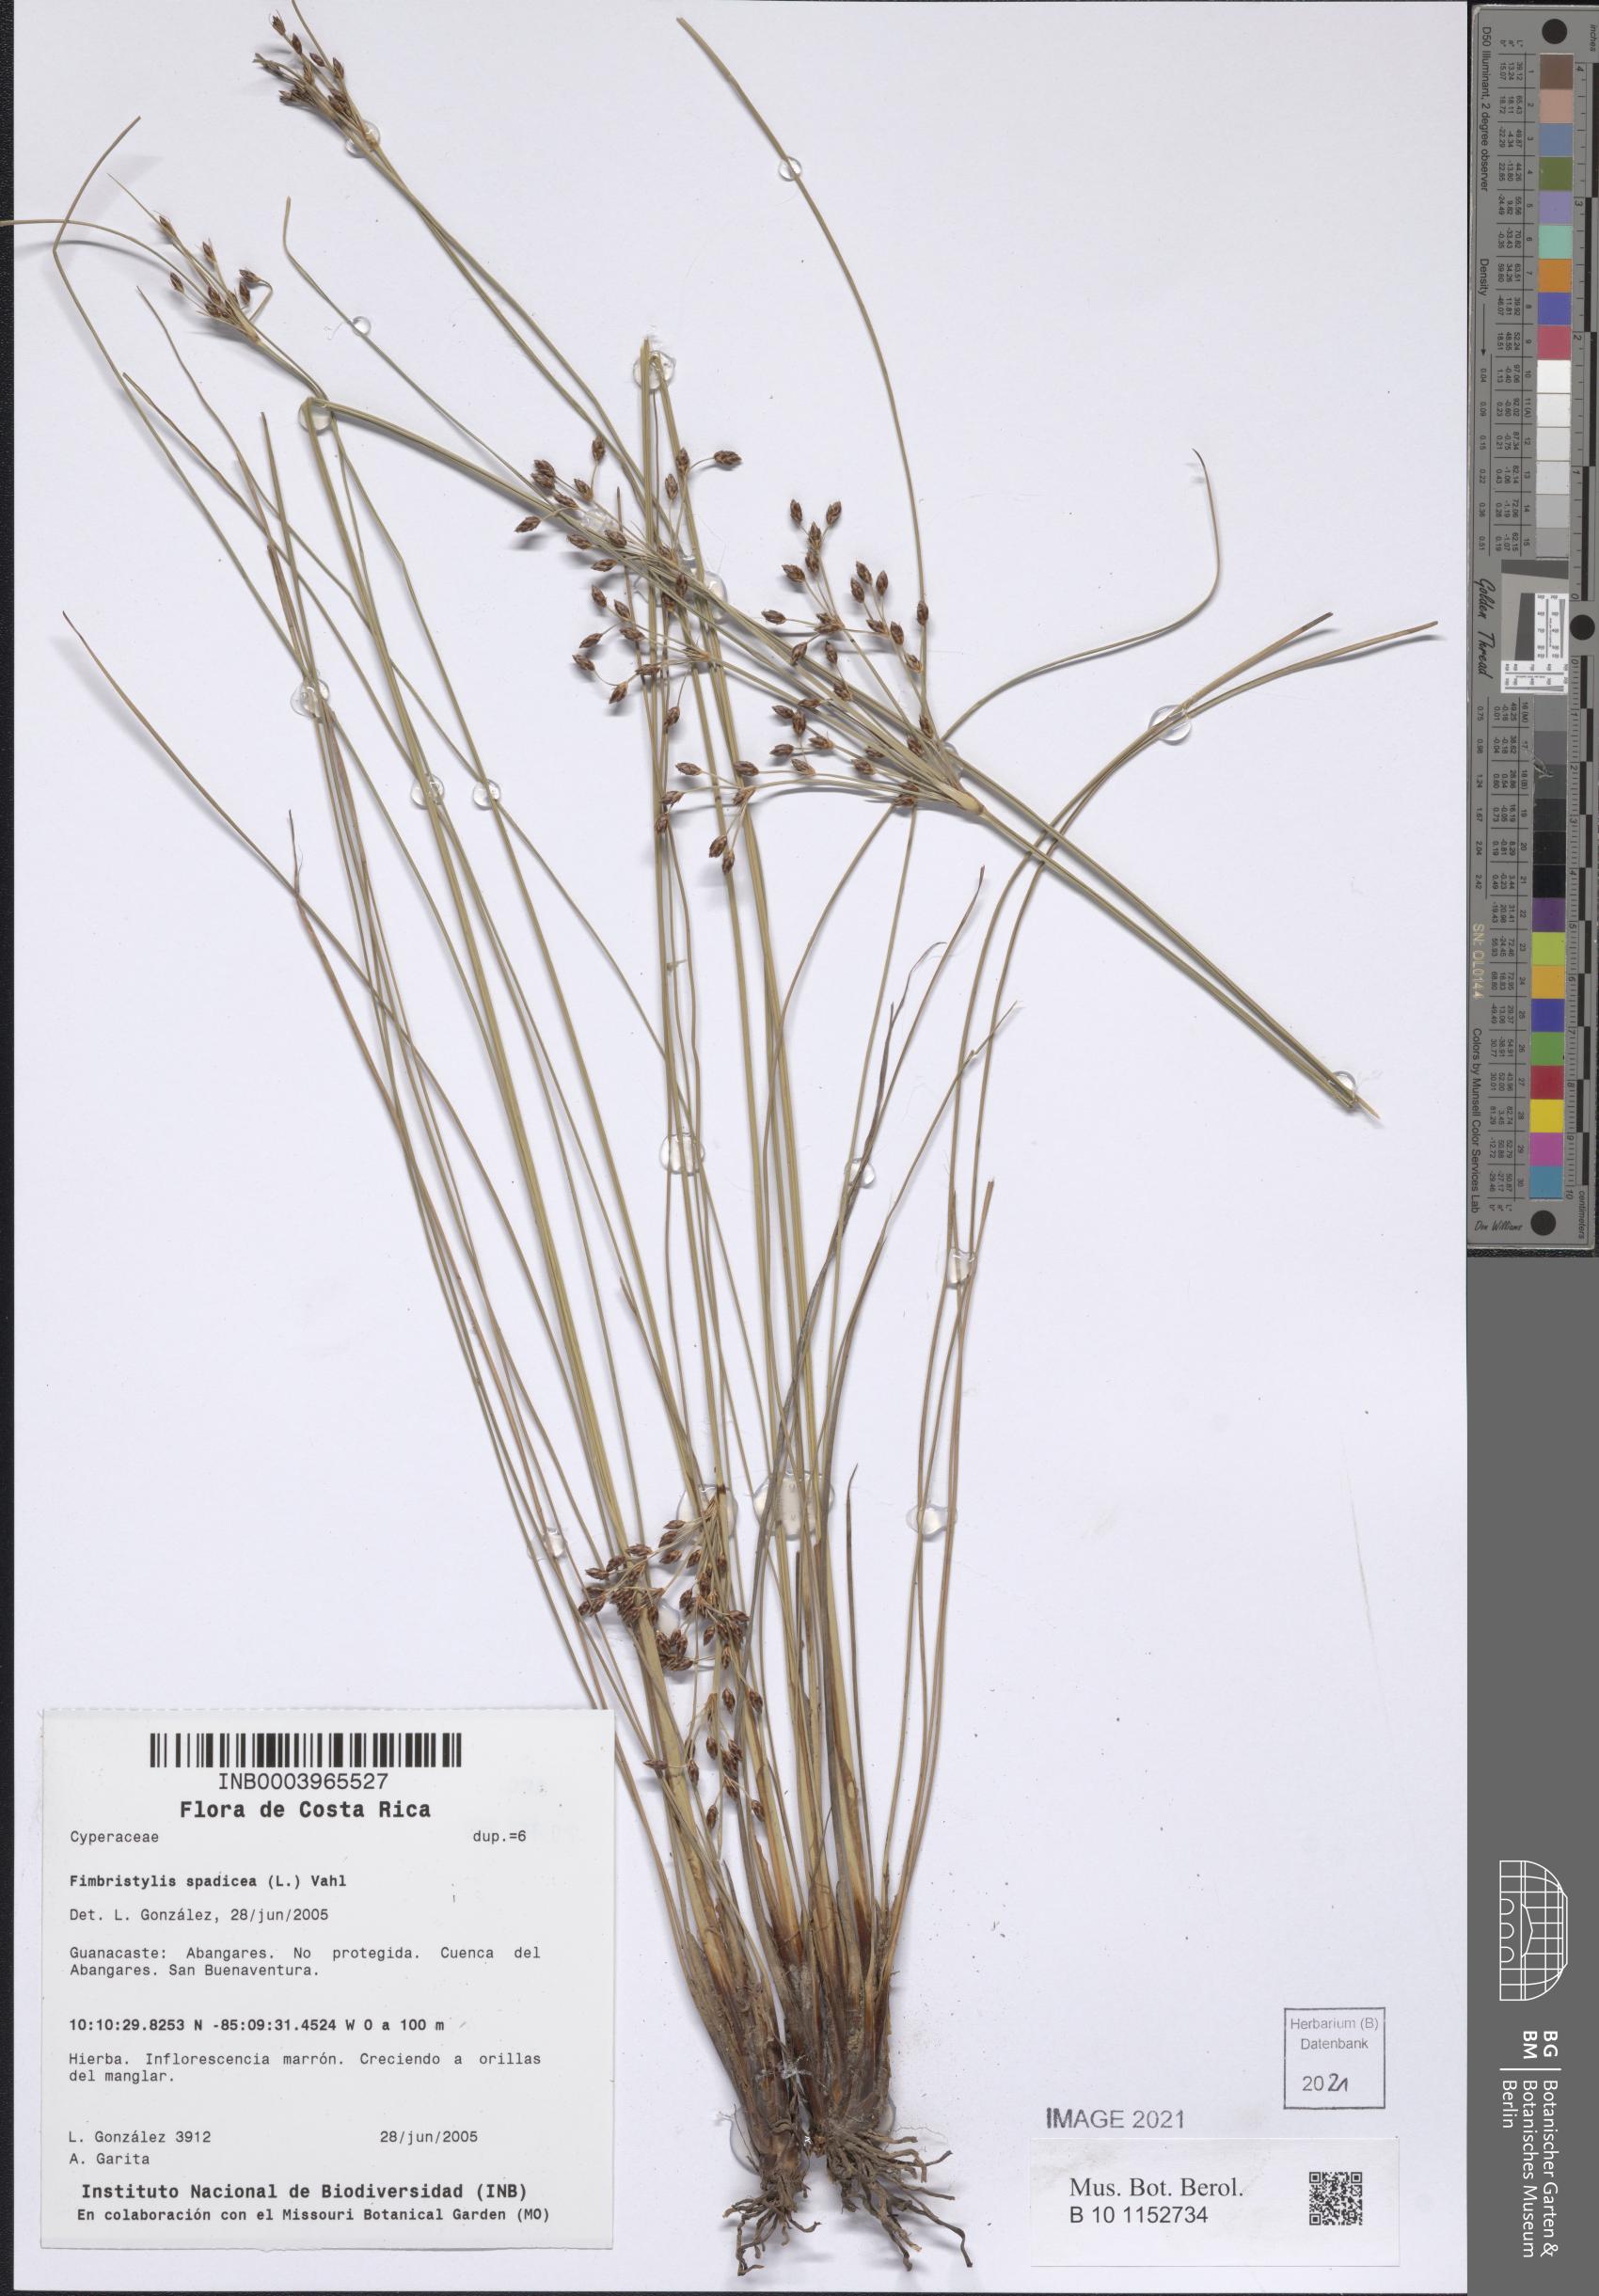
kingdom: Plantae
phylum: Tracheophyta
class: Liliopsida
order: Poales
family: Cyperaceae
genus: Fimbristylis
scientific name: Fimbristylis spadicea
